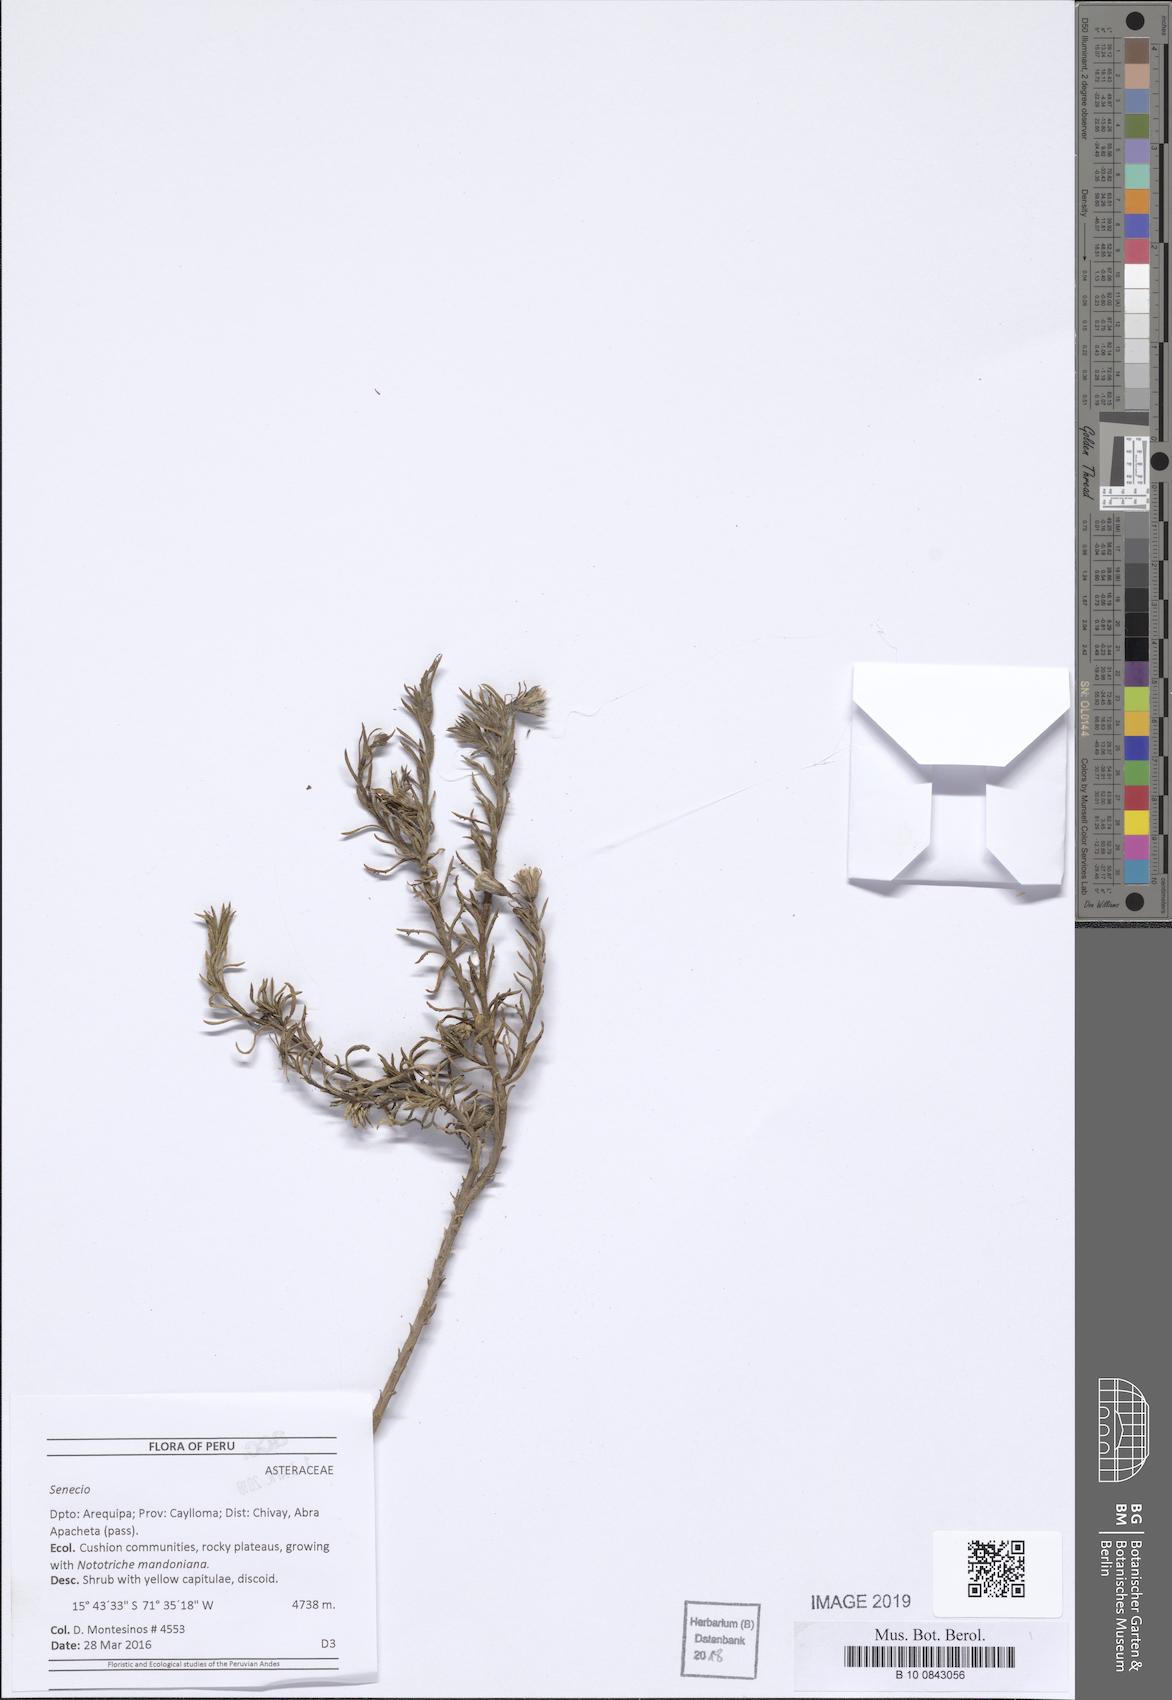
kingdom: Plantae
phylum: Tracheophyta
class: Magnoliopsida
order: Asterales
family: Asteraceae
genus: Senecio
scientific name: Senecio clivicola
